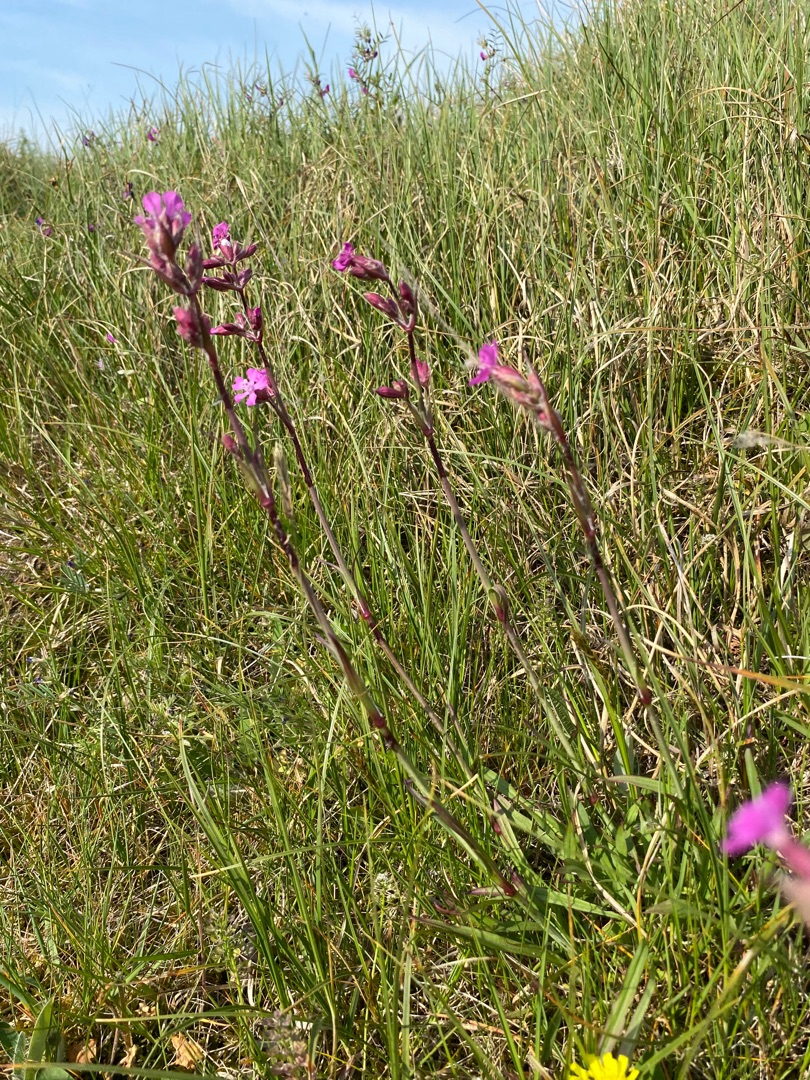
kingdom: Plantae
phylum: Tracheophyta
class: Magnoliopsida
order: Caryophyllales
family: Caryophyllaceae
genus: Viscaria
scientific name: Viscaria vulgaris
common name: Tjærenellike
